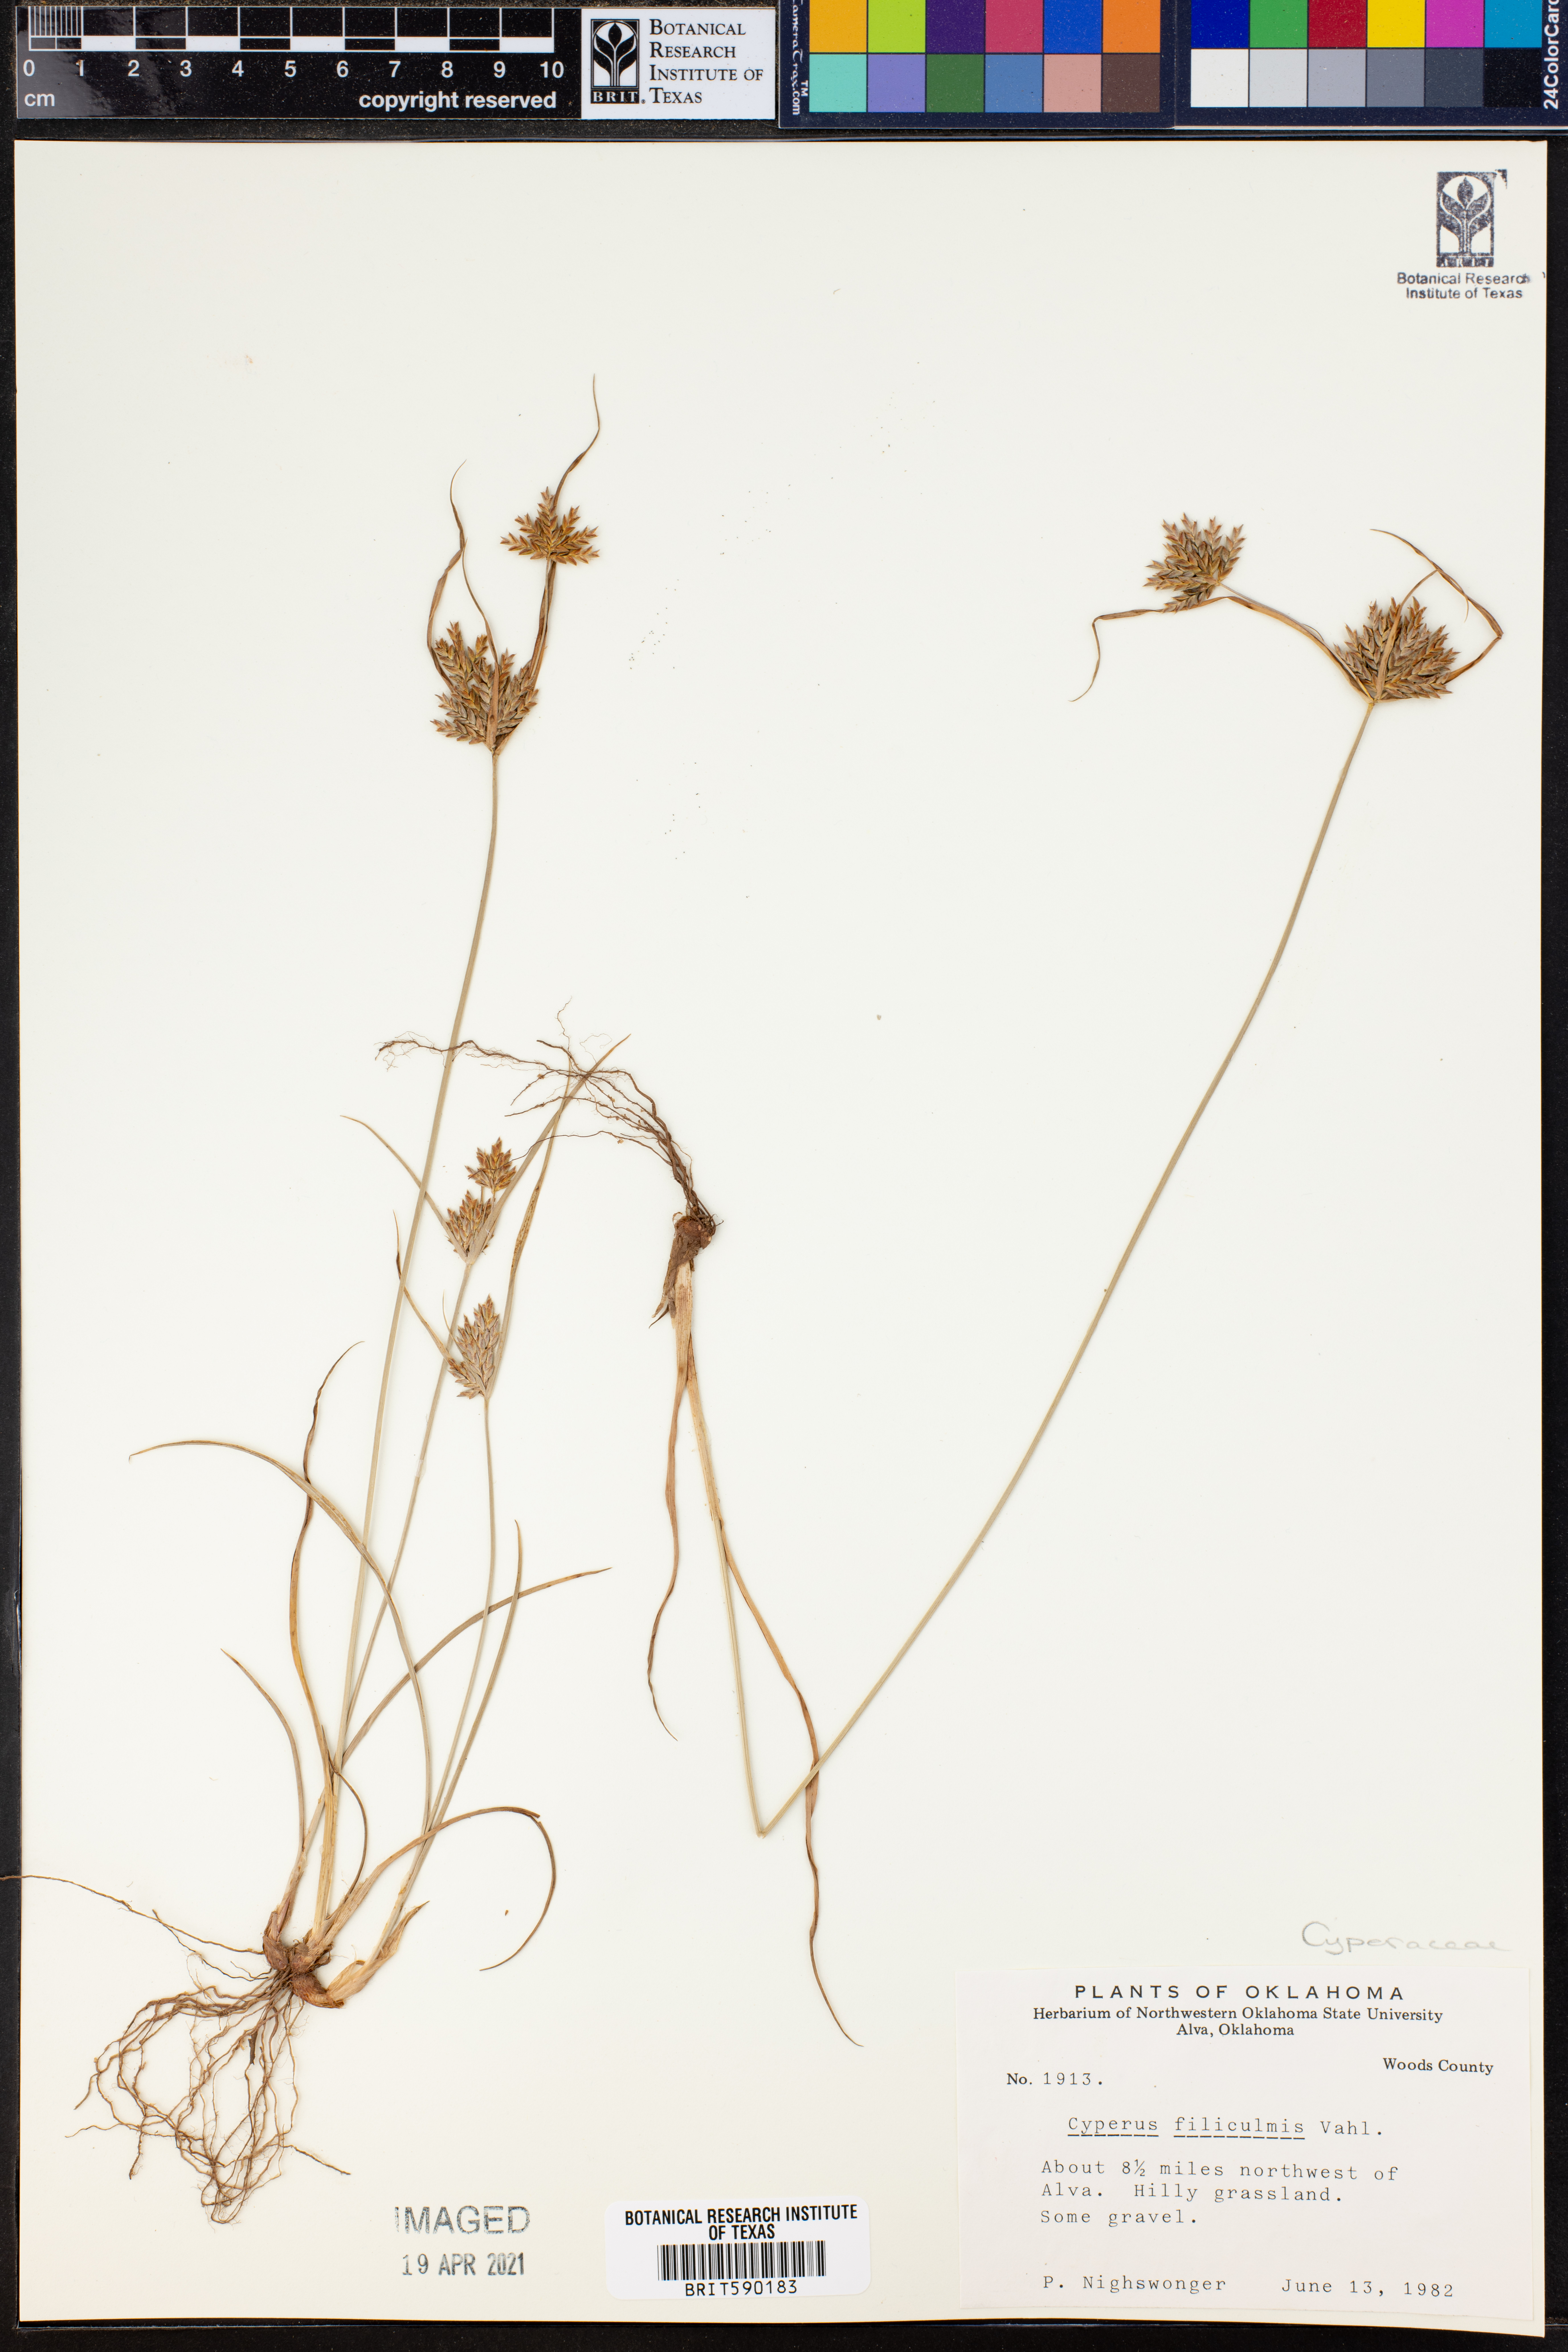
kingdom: Plantae
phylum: Tracheophyta
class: Liliopsida
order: Poales
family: Cyperaceae
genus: Cyperus
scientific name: Cyperus lanceolatus
